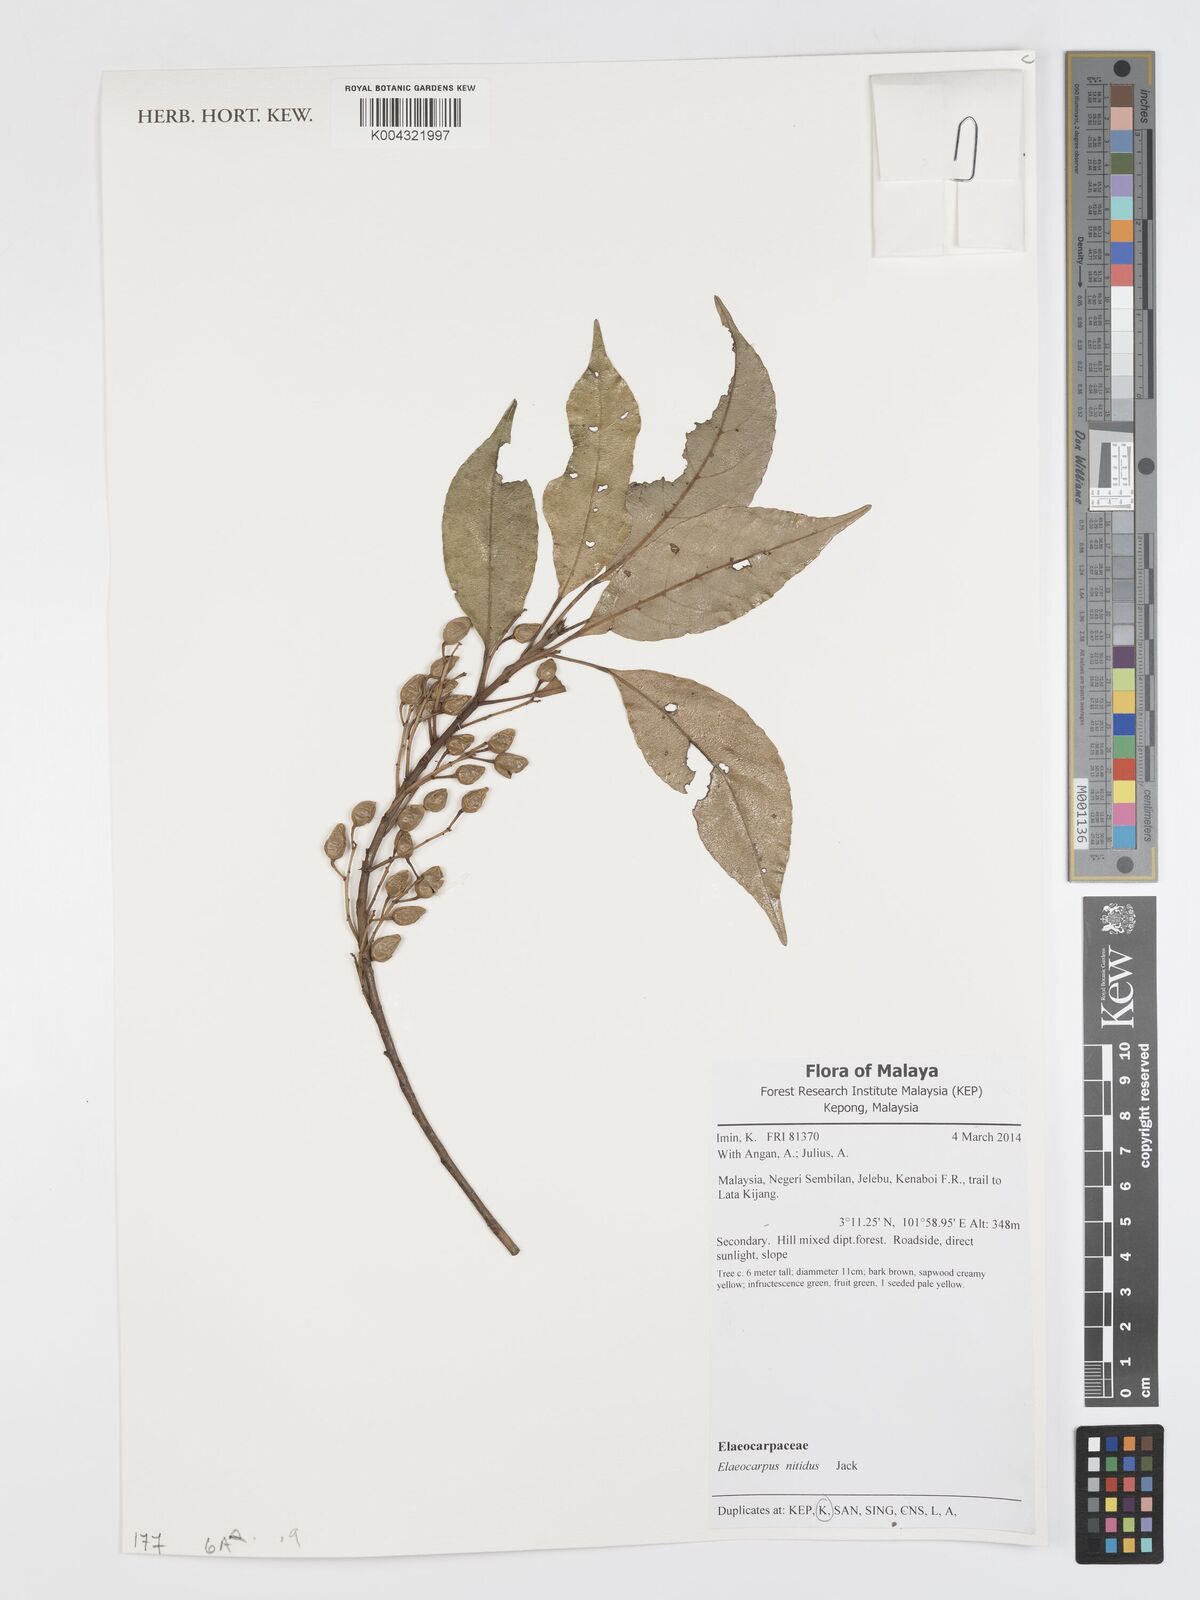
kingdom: Plantae
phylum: Tracheophyta
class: Magnoliopsida
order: Oxalidales
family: Elaeocarpaceae
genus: Elaeocarpus
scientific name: Elaeocarpus nitidus
